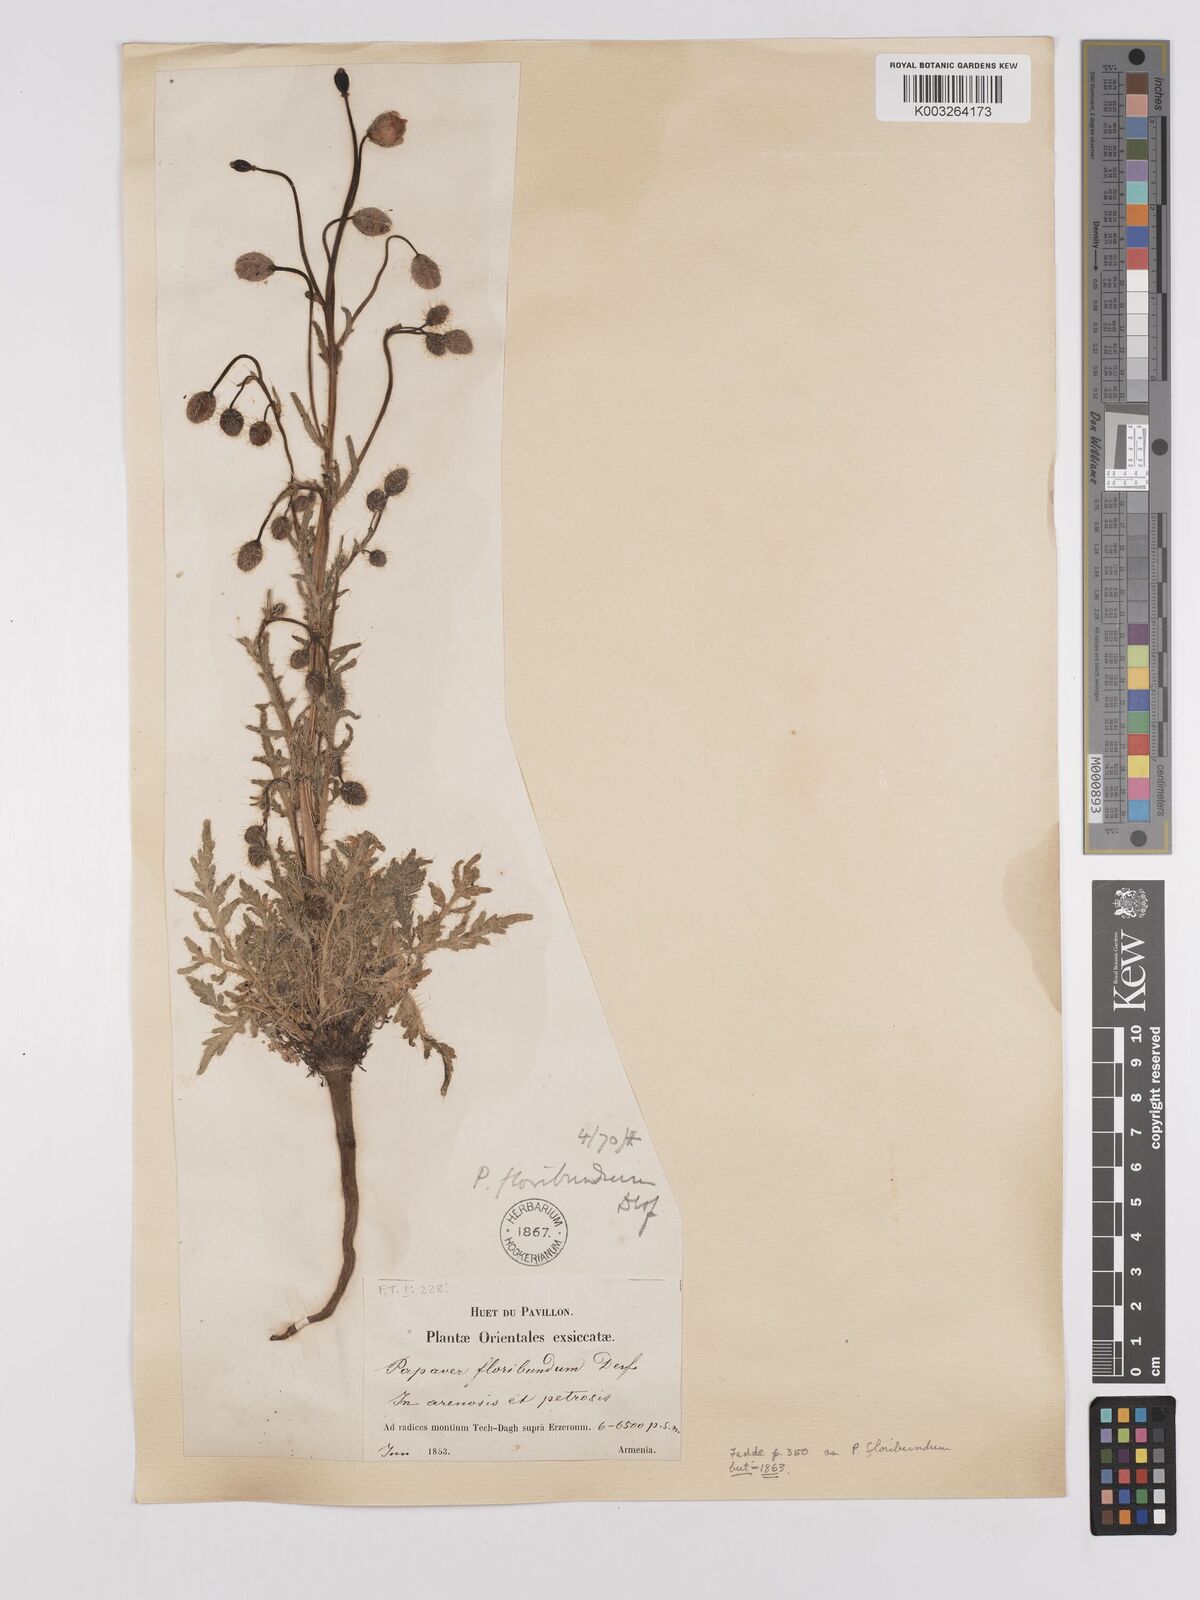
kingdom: Plantae
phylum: Tracheophyta
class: Magnoliopsida
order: Ranunculales
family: Papaveraceae
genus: Papaver
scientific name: Papaver armeniacum
